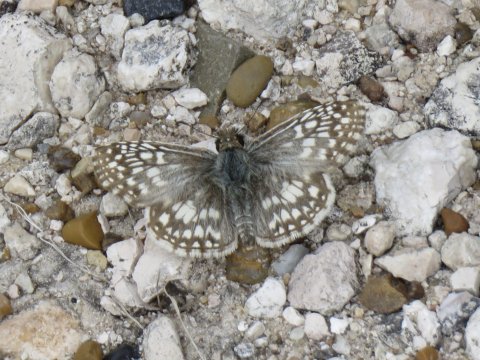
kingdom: Animalia
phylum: Arthropoda
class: Insecta
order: Lepidoptera
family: Hesperiidae
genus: Pyrgus
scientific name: Pyrgus oileus
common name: Tropical Checkered-Skipper
